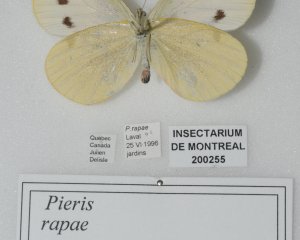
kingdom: Animalia
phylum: Arthropoda
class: Insecta
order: Lepidoptera
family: Pieridae
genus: Pieris
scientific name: Pieris rapae
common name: Cabbage White
